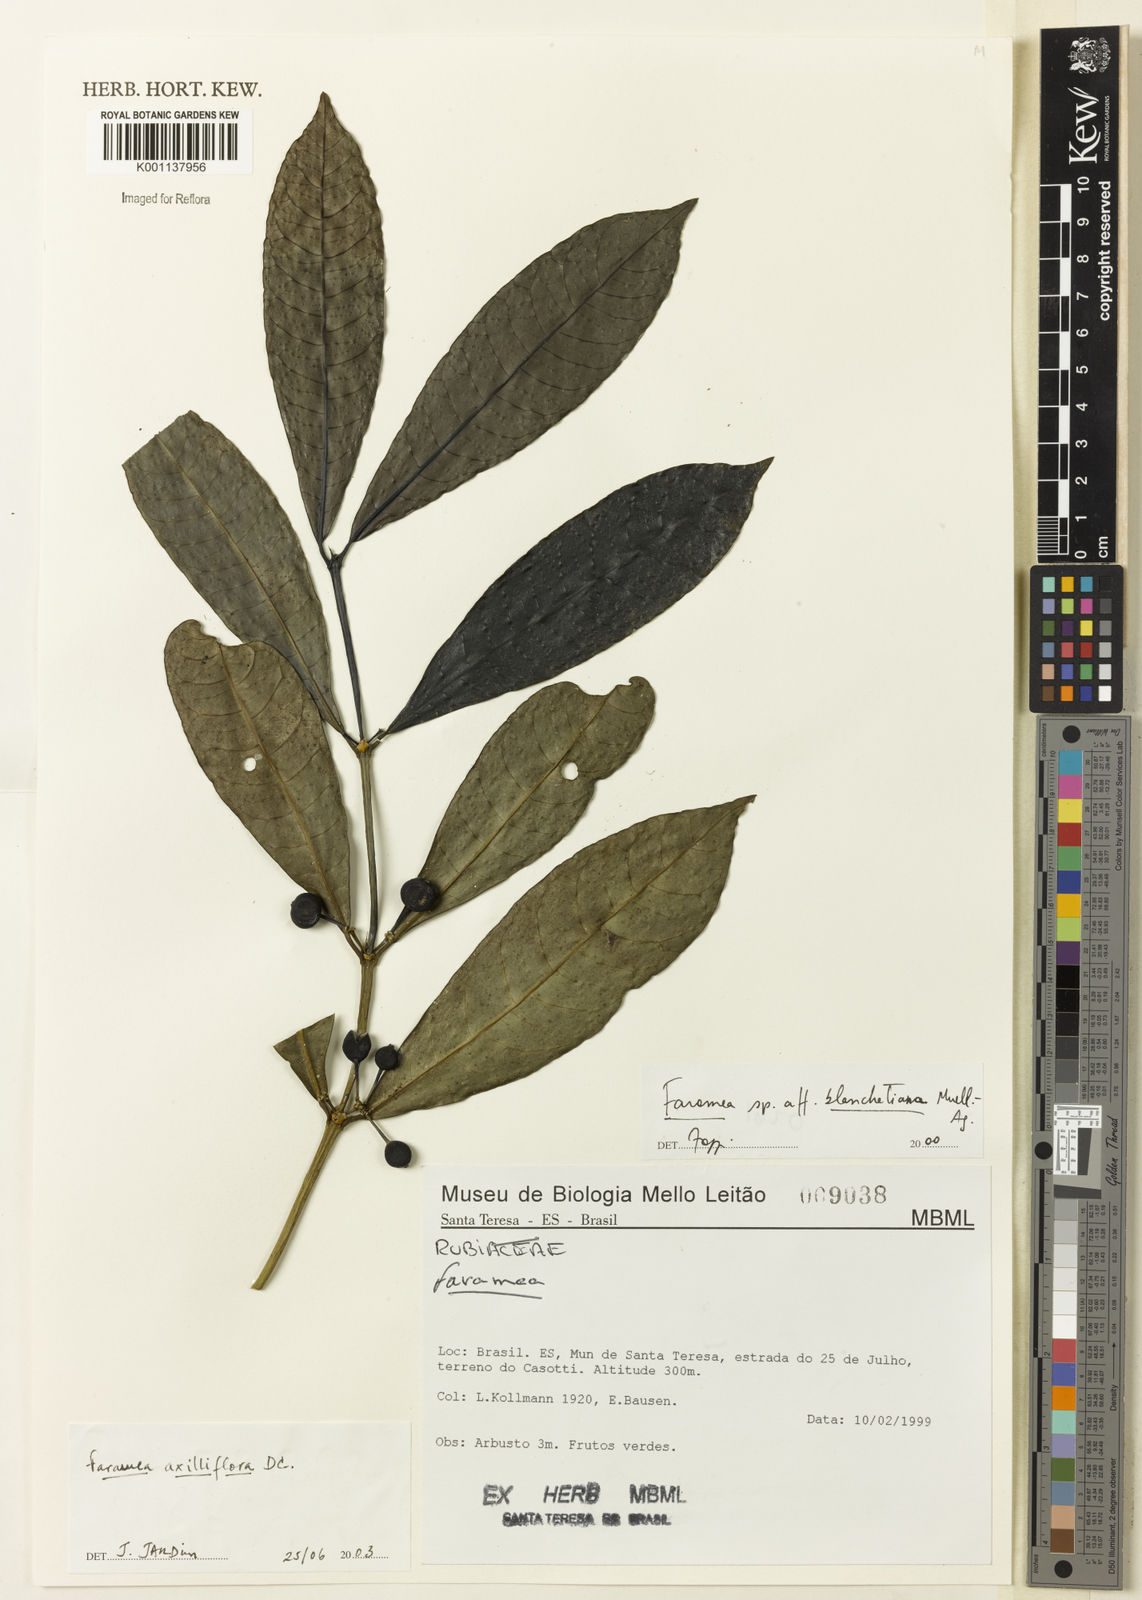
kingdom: Plantae
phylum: Tracheophyta
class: Magnoliopsida
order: Gentianales
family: Rubiaceae
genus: Faramea
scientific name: Faramea axilliflora
